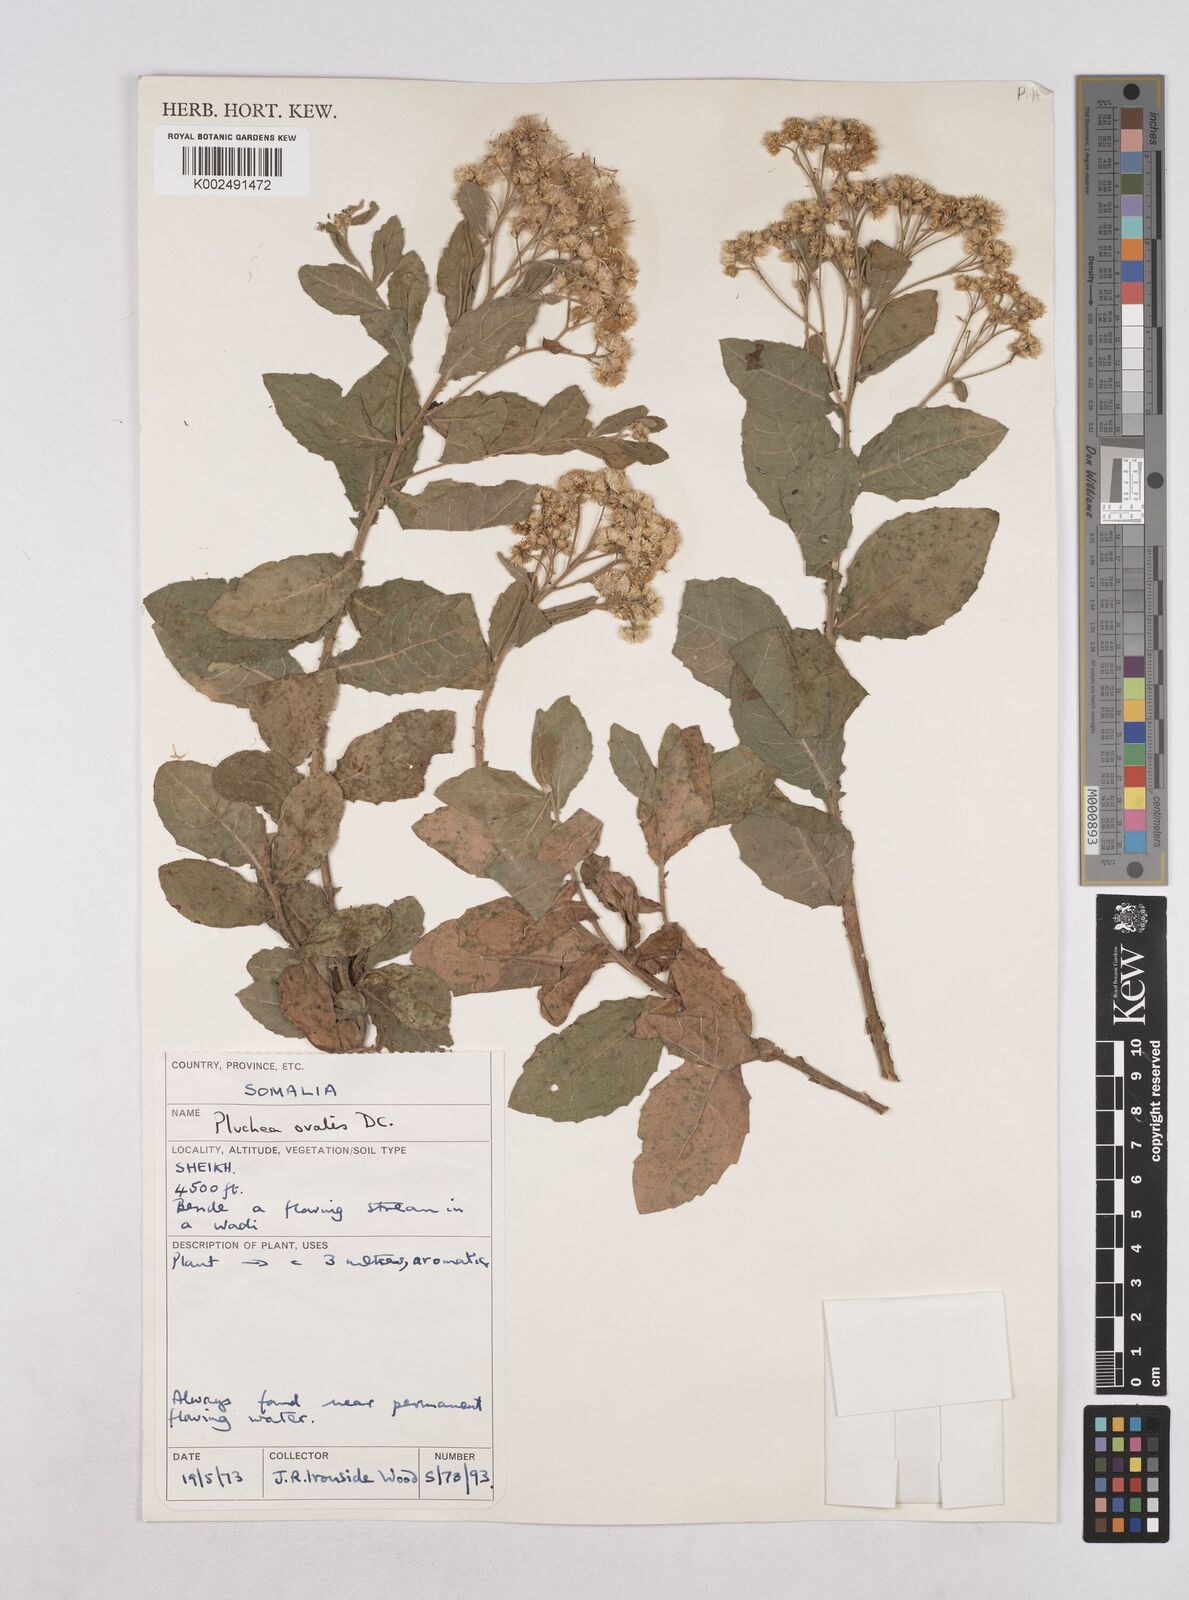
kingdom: Plantae
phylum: Tracheophyta
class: Magnoliopsida
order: Asterales
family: Asteraceae
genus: Pluchea
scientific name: Pluchea ovalis
